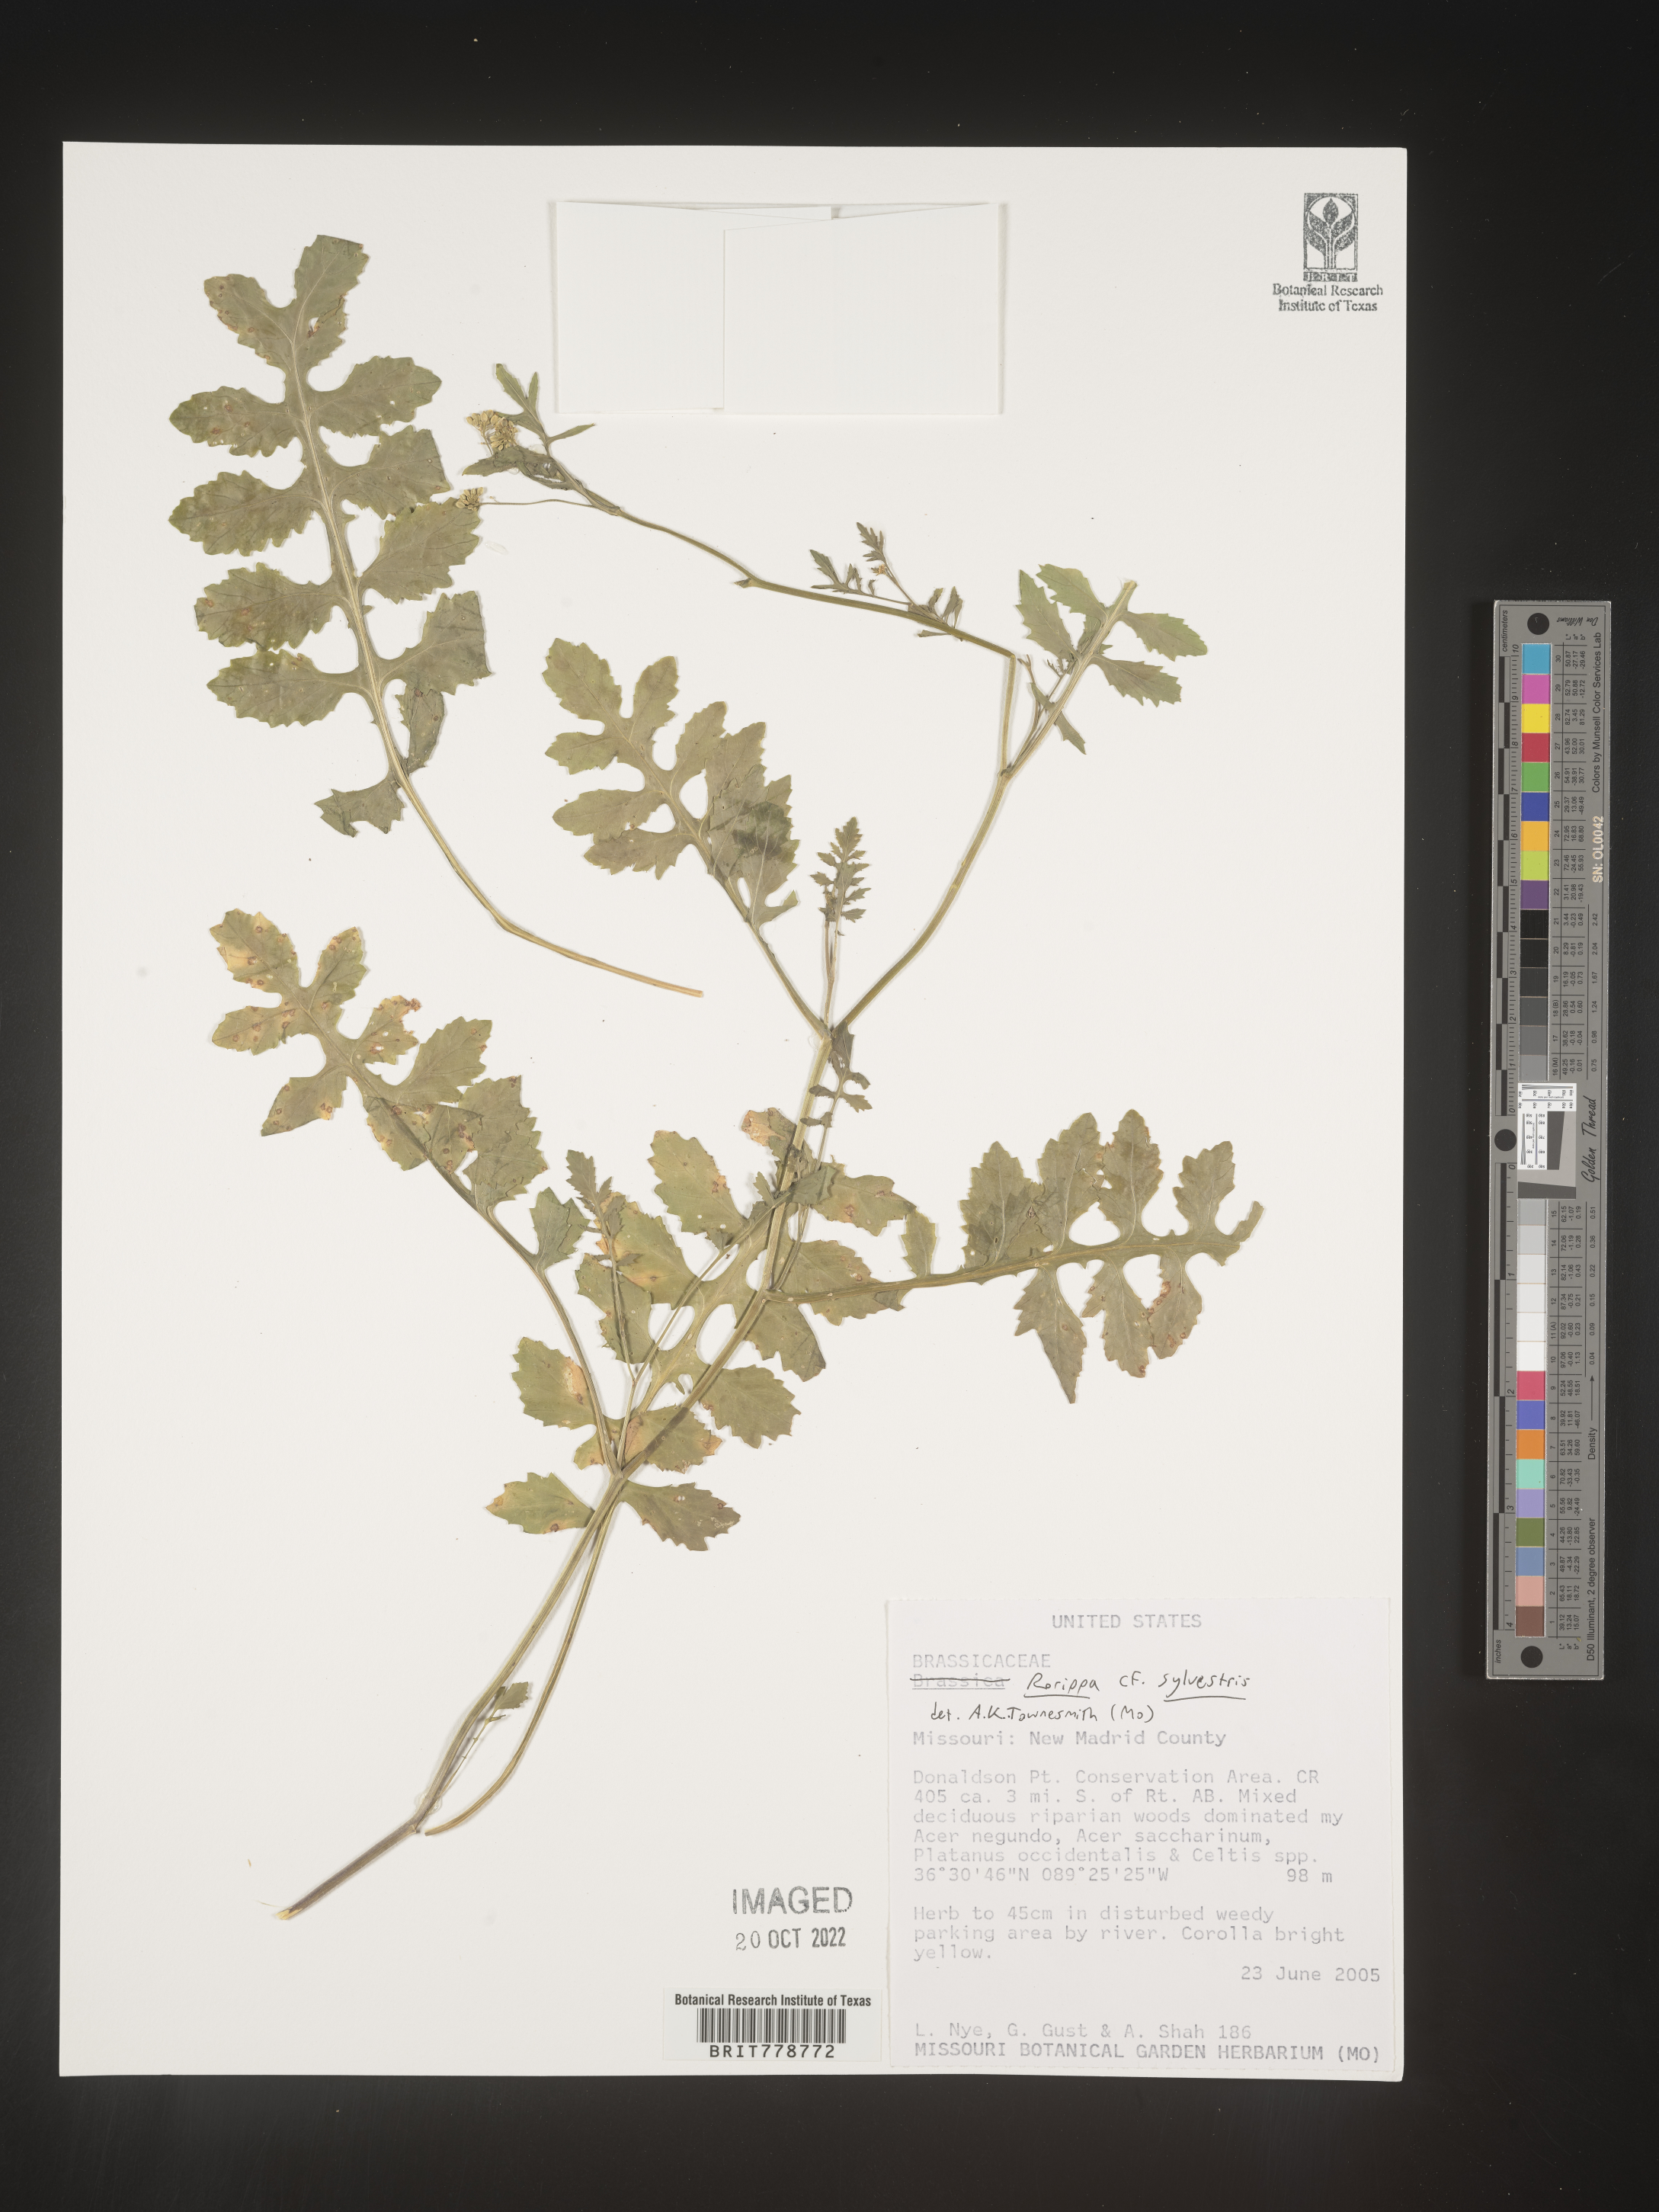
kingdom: Plantae
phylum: Tracheophyta
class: Magnoliopsida
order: Brassicales
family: Brassicaceae
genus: Rorippa
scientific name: Rorippa sylvestris
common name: Creeping yellowcress
